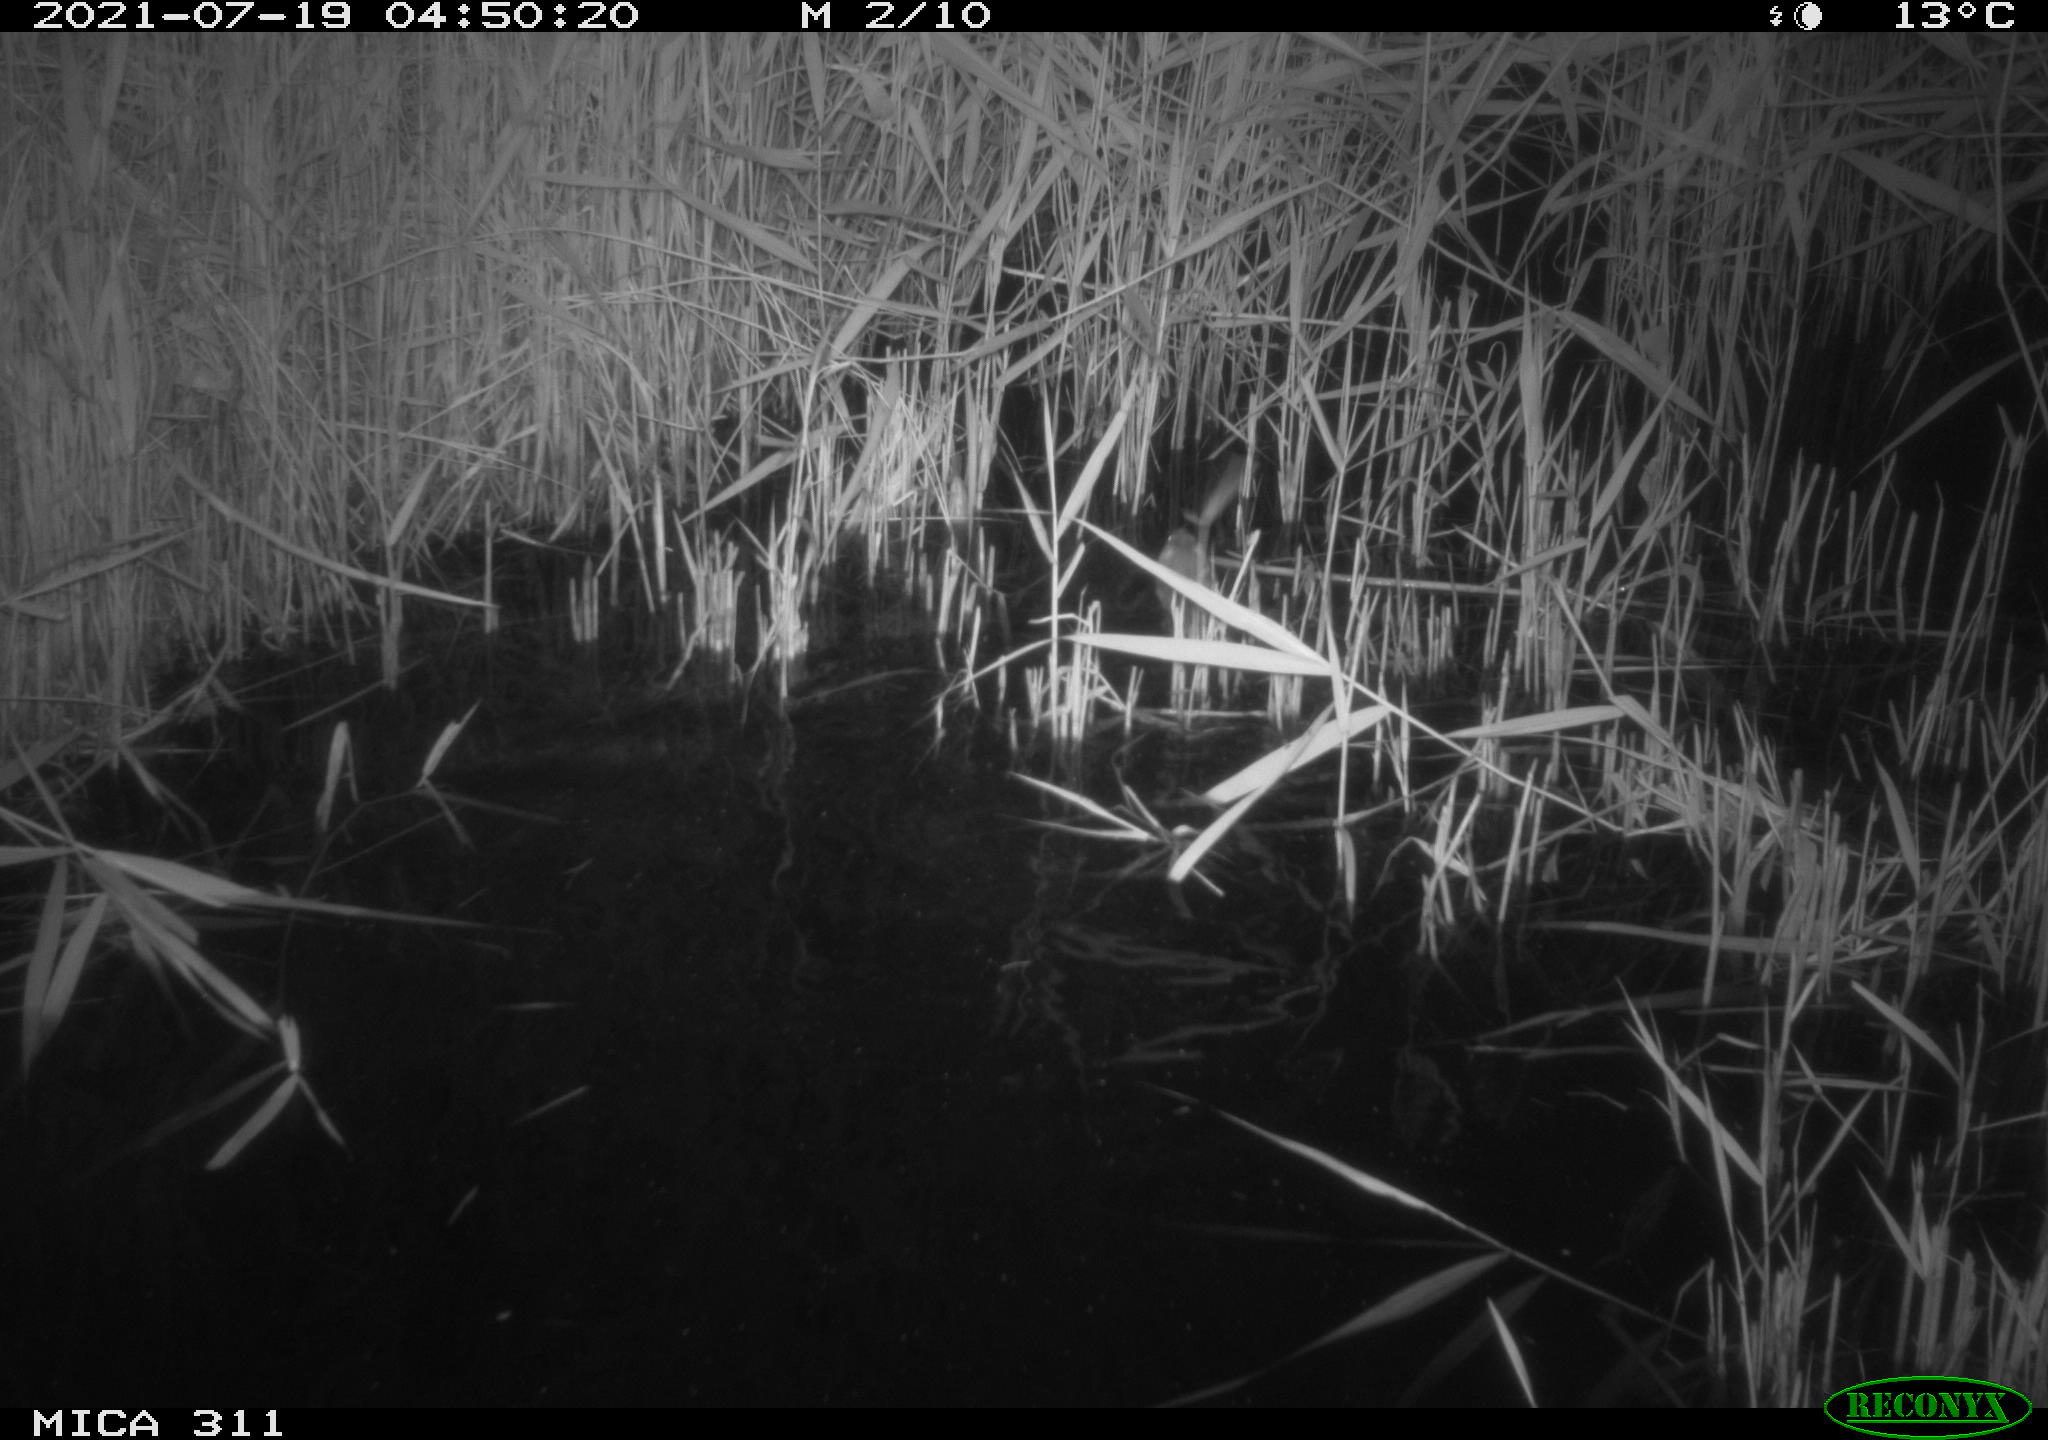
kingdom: Animalia
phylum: Chordata
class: Mammalia
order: Rodentia
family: Muridae
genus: Rattus
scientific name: Rattus norvegicus
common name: Brown rat
